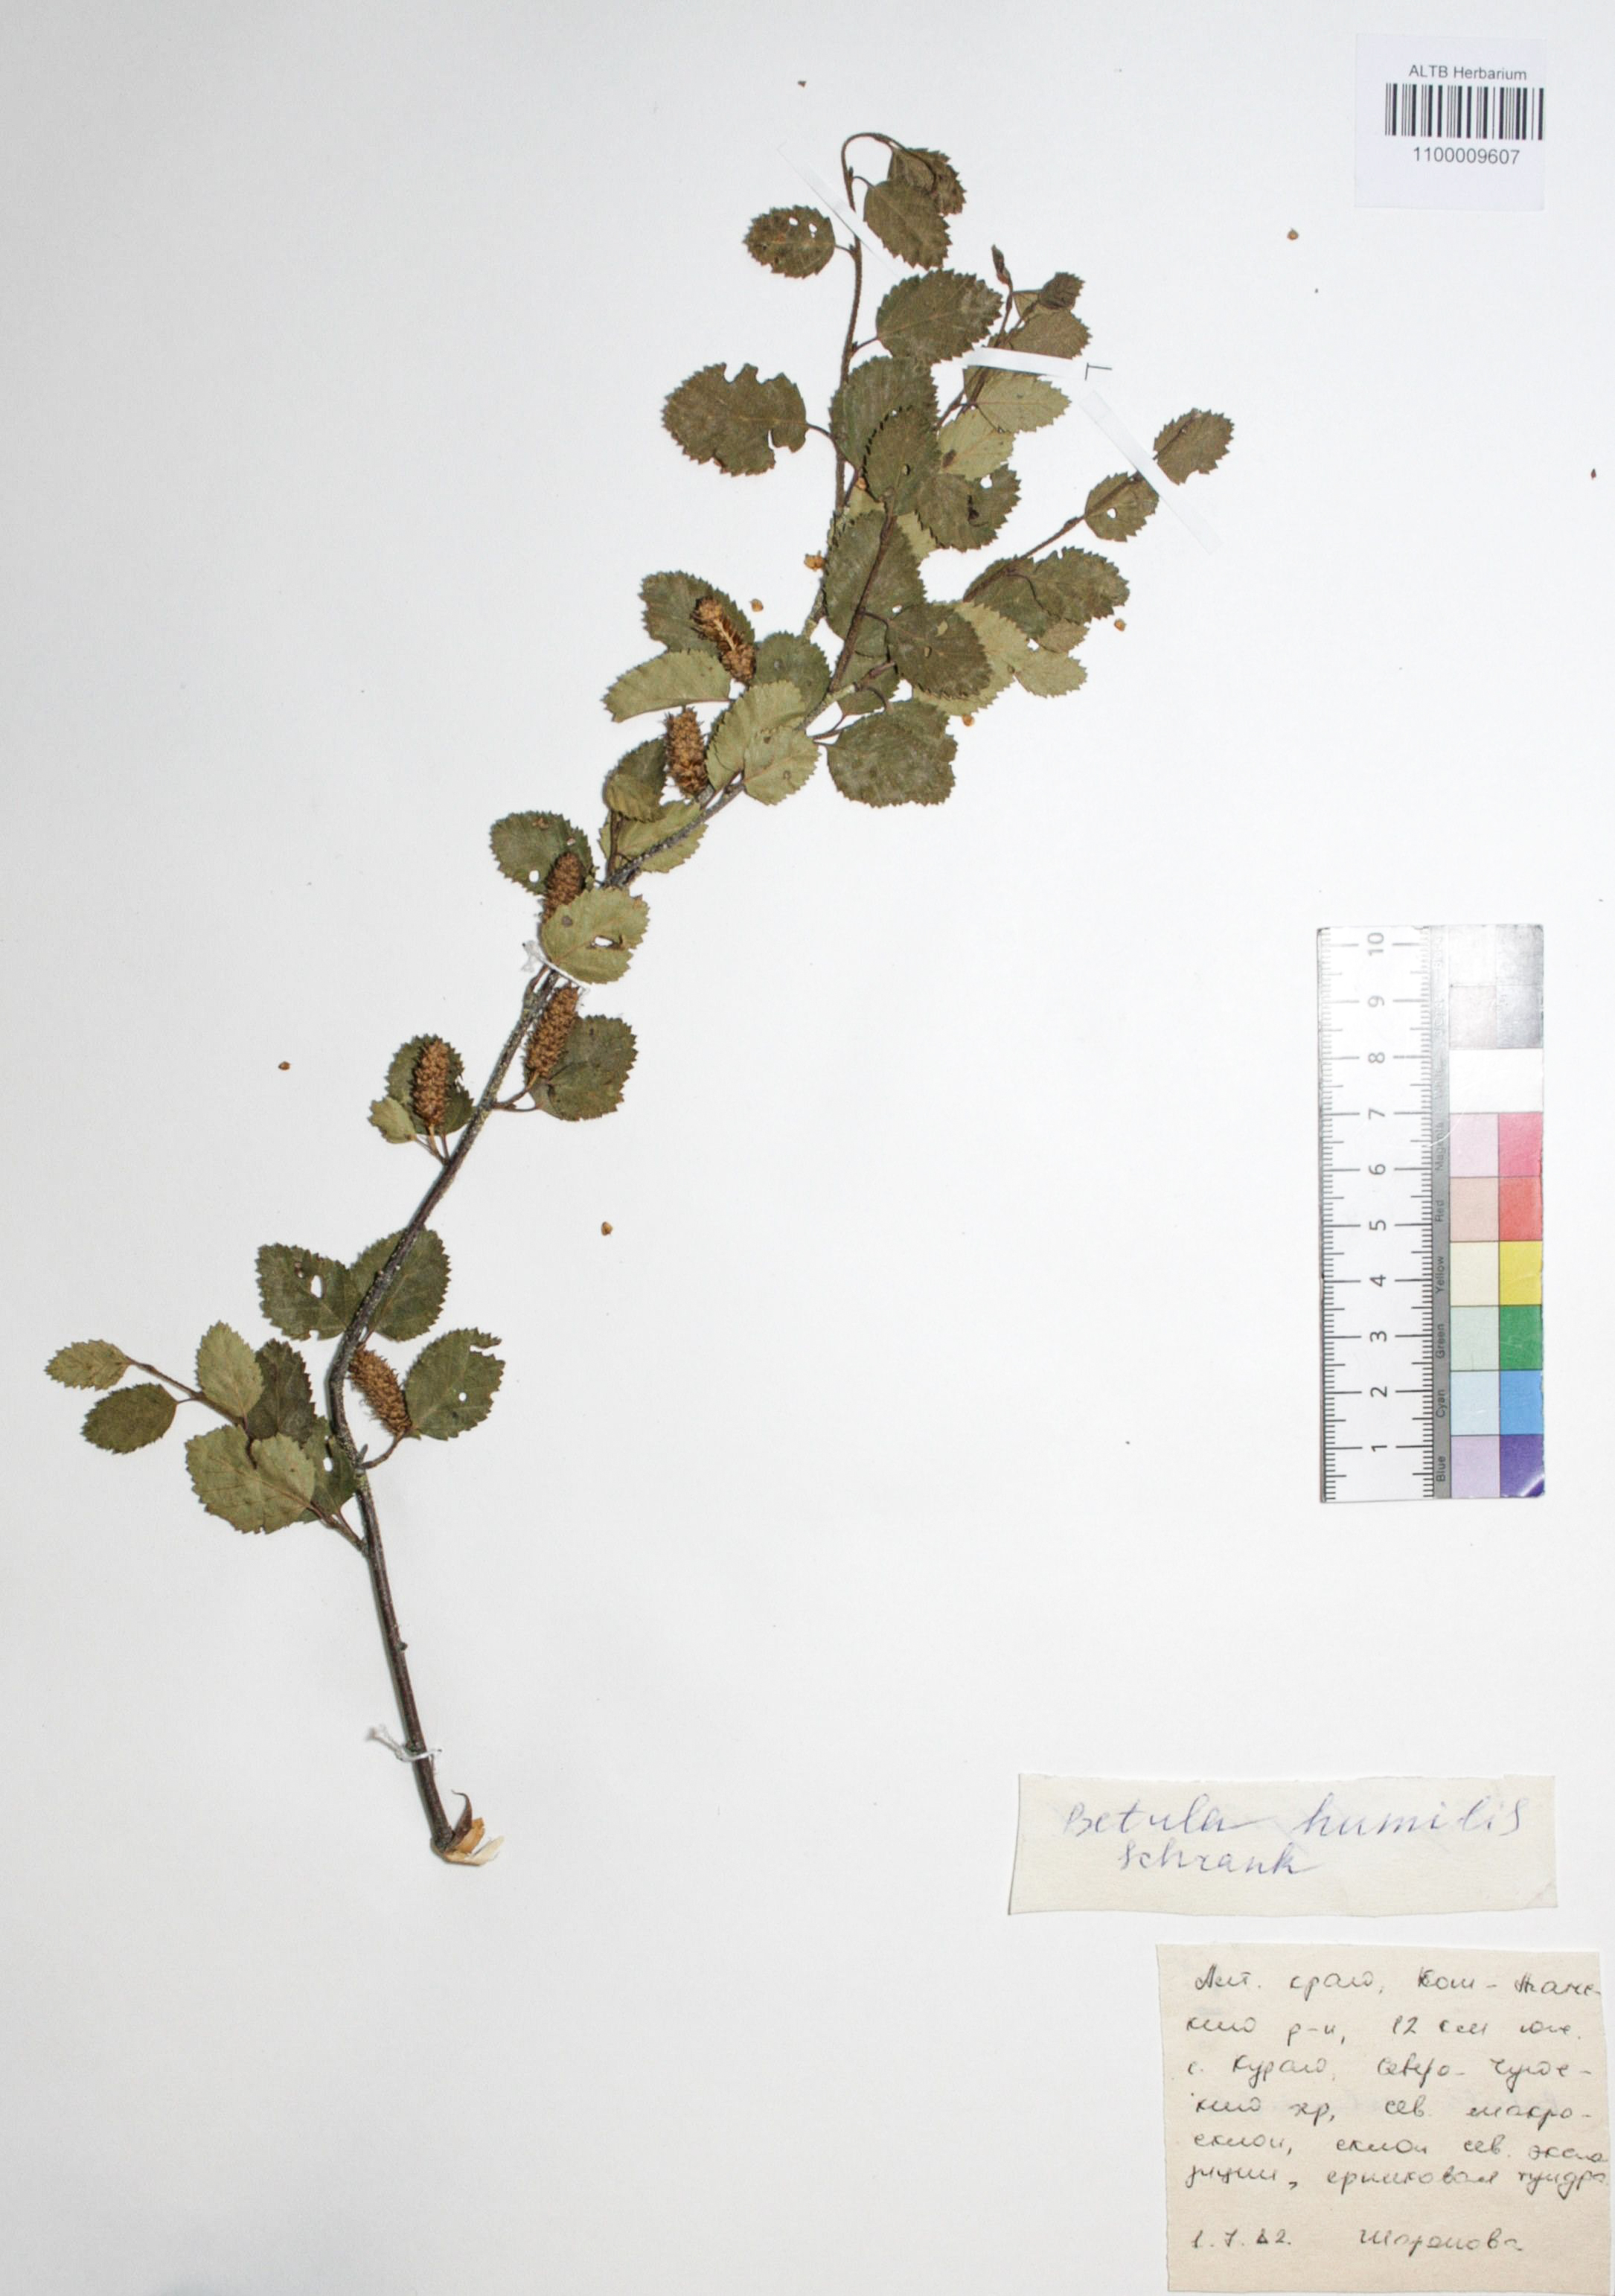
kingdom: Plantae
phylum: Tracheophyta
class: Magnoliopsida
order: Fagales
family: Betulaceae
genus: Betula
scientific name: Betula humilis
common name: Shrubby birch
